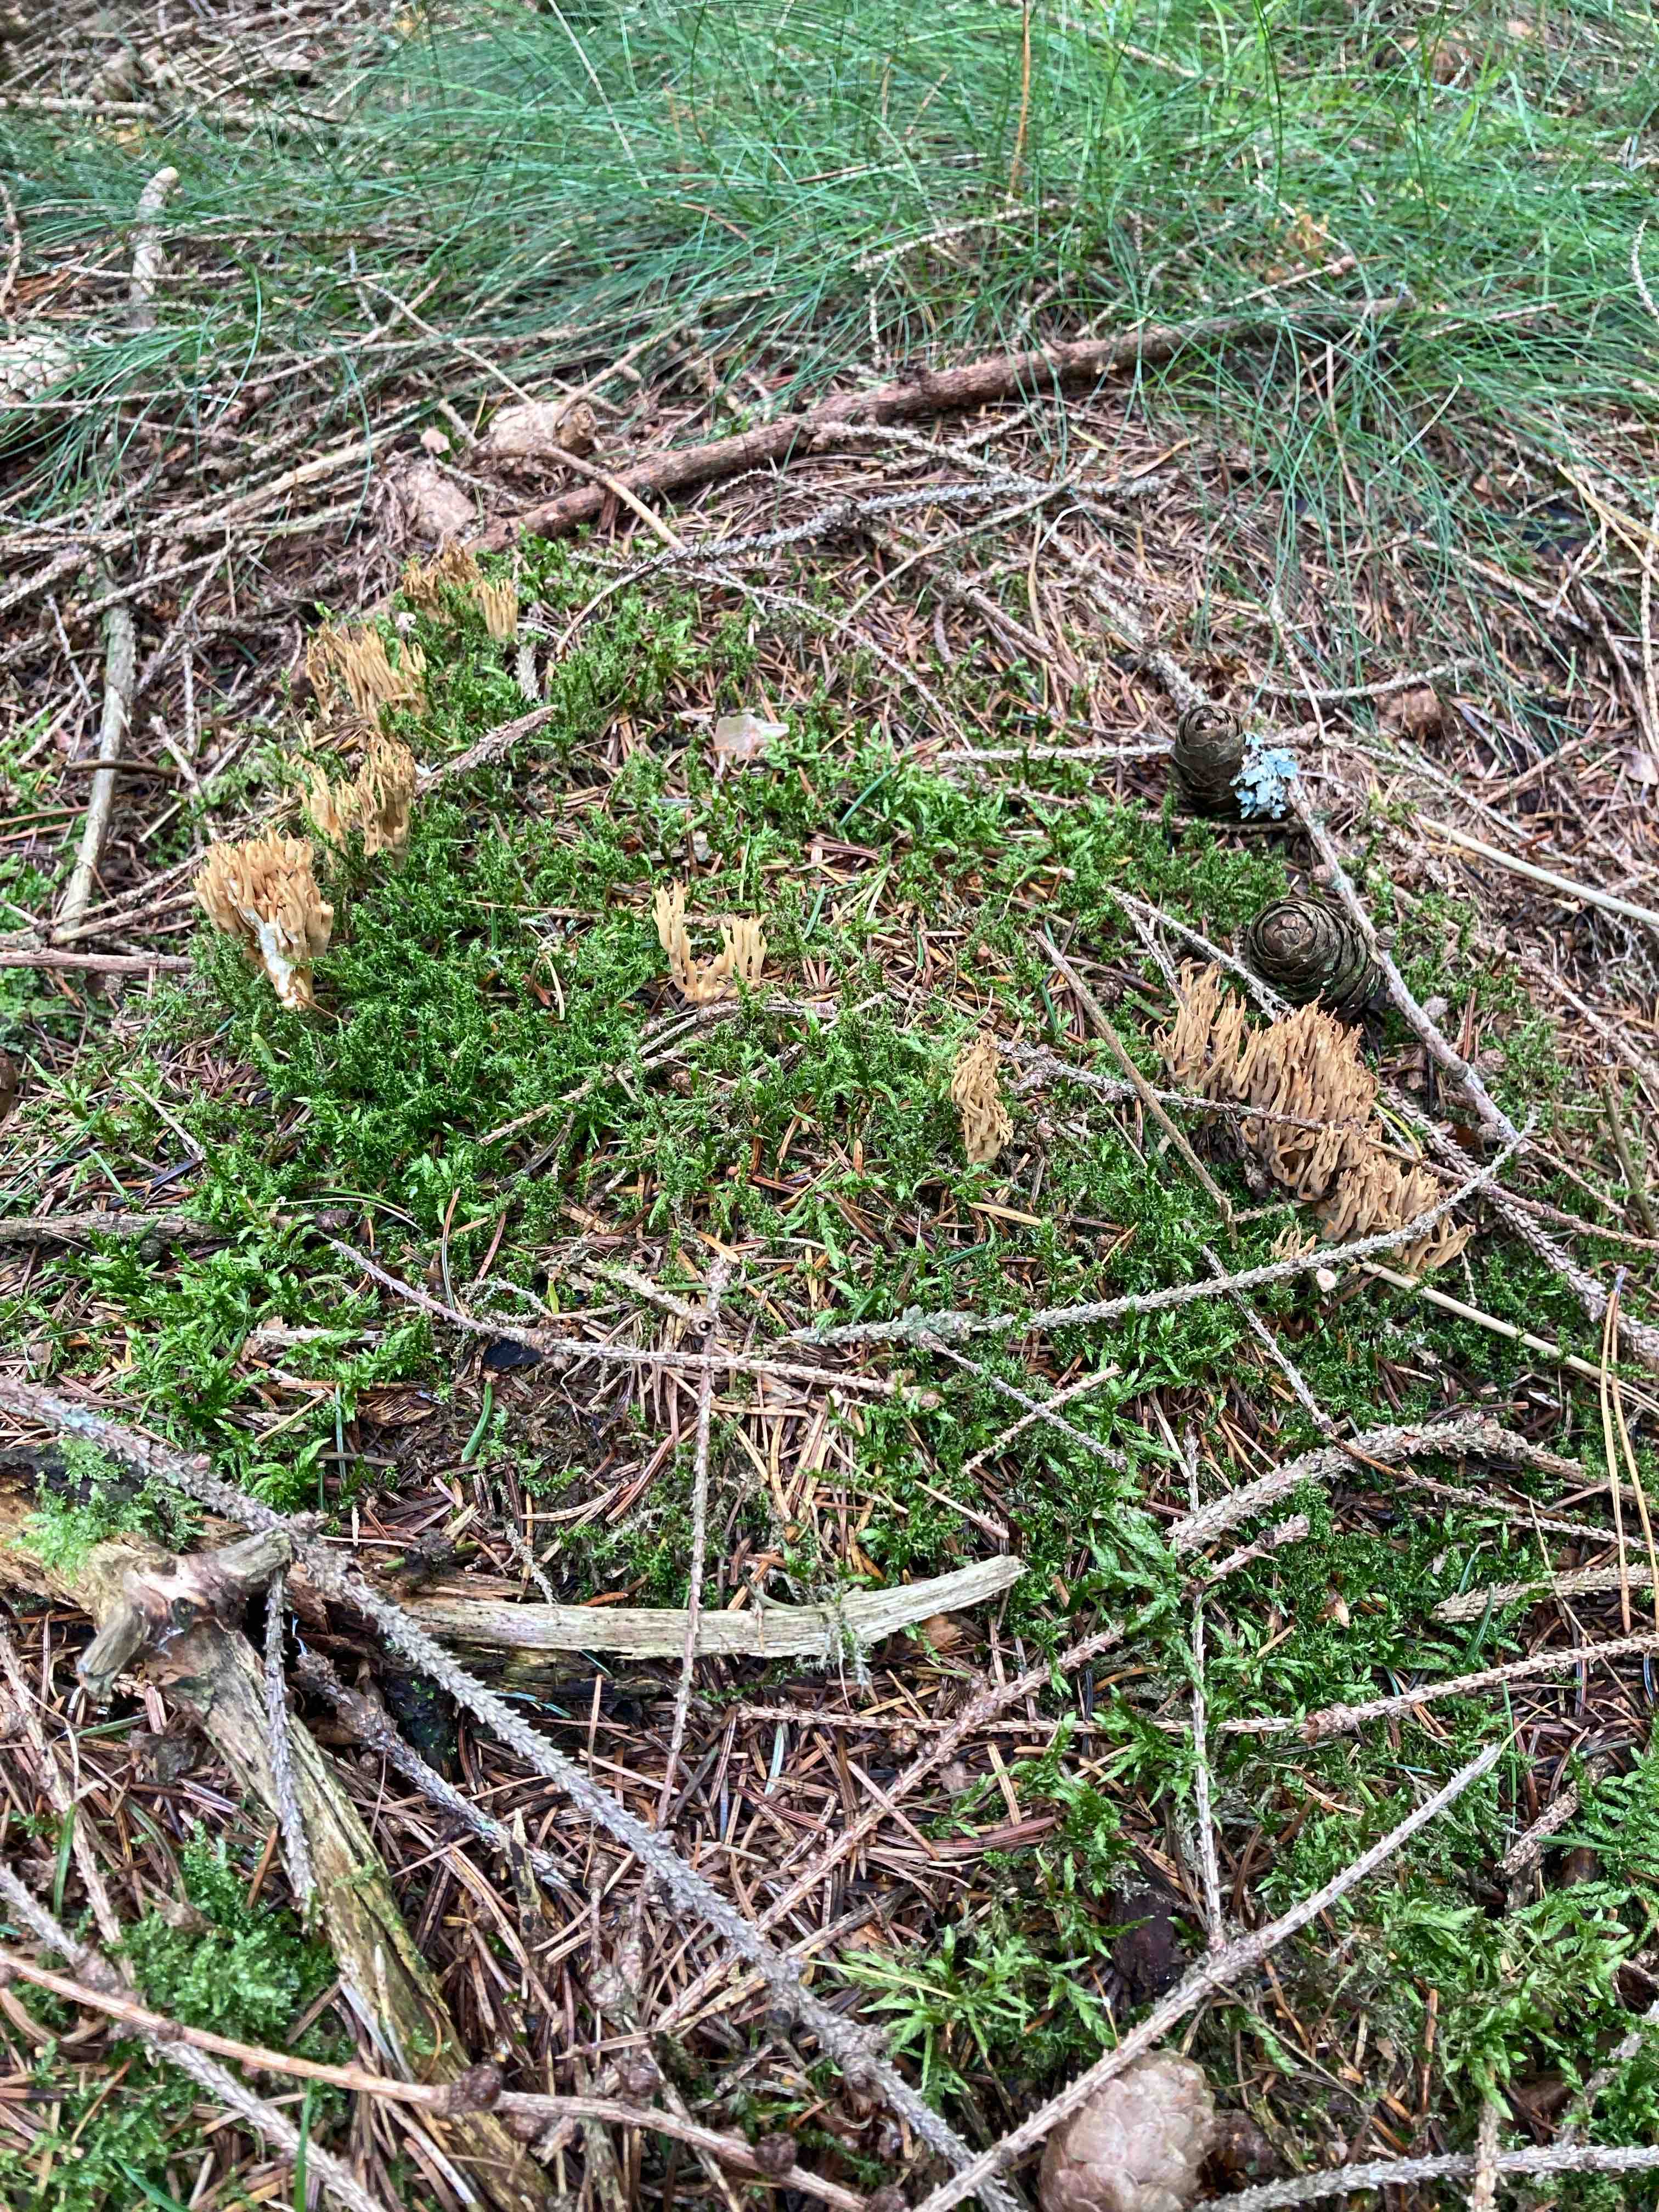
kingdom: Fungi
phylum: Basidiomycota
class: Agaricomycetes
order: Gomphales
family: Gomphaceae
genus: Phaeoclavulina
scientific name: Phaeoclavulina eumorpha
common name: gran-koralsvamp
